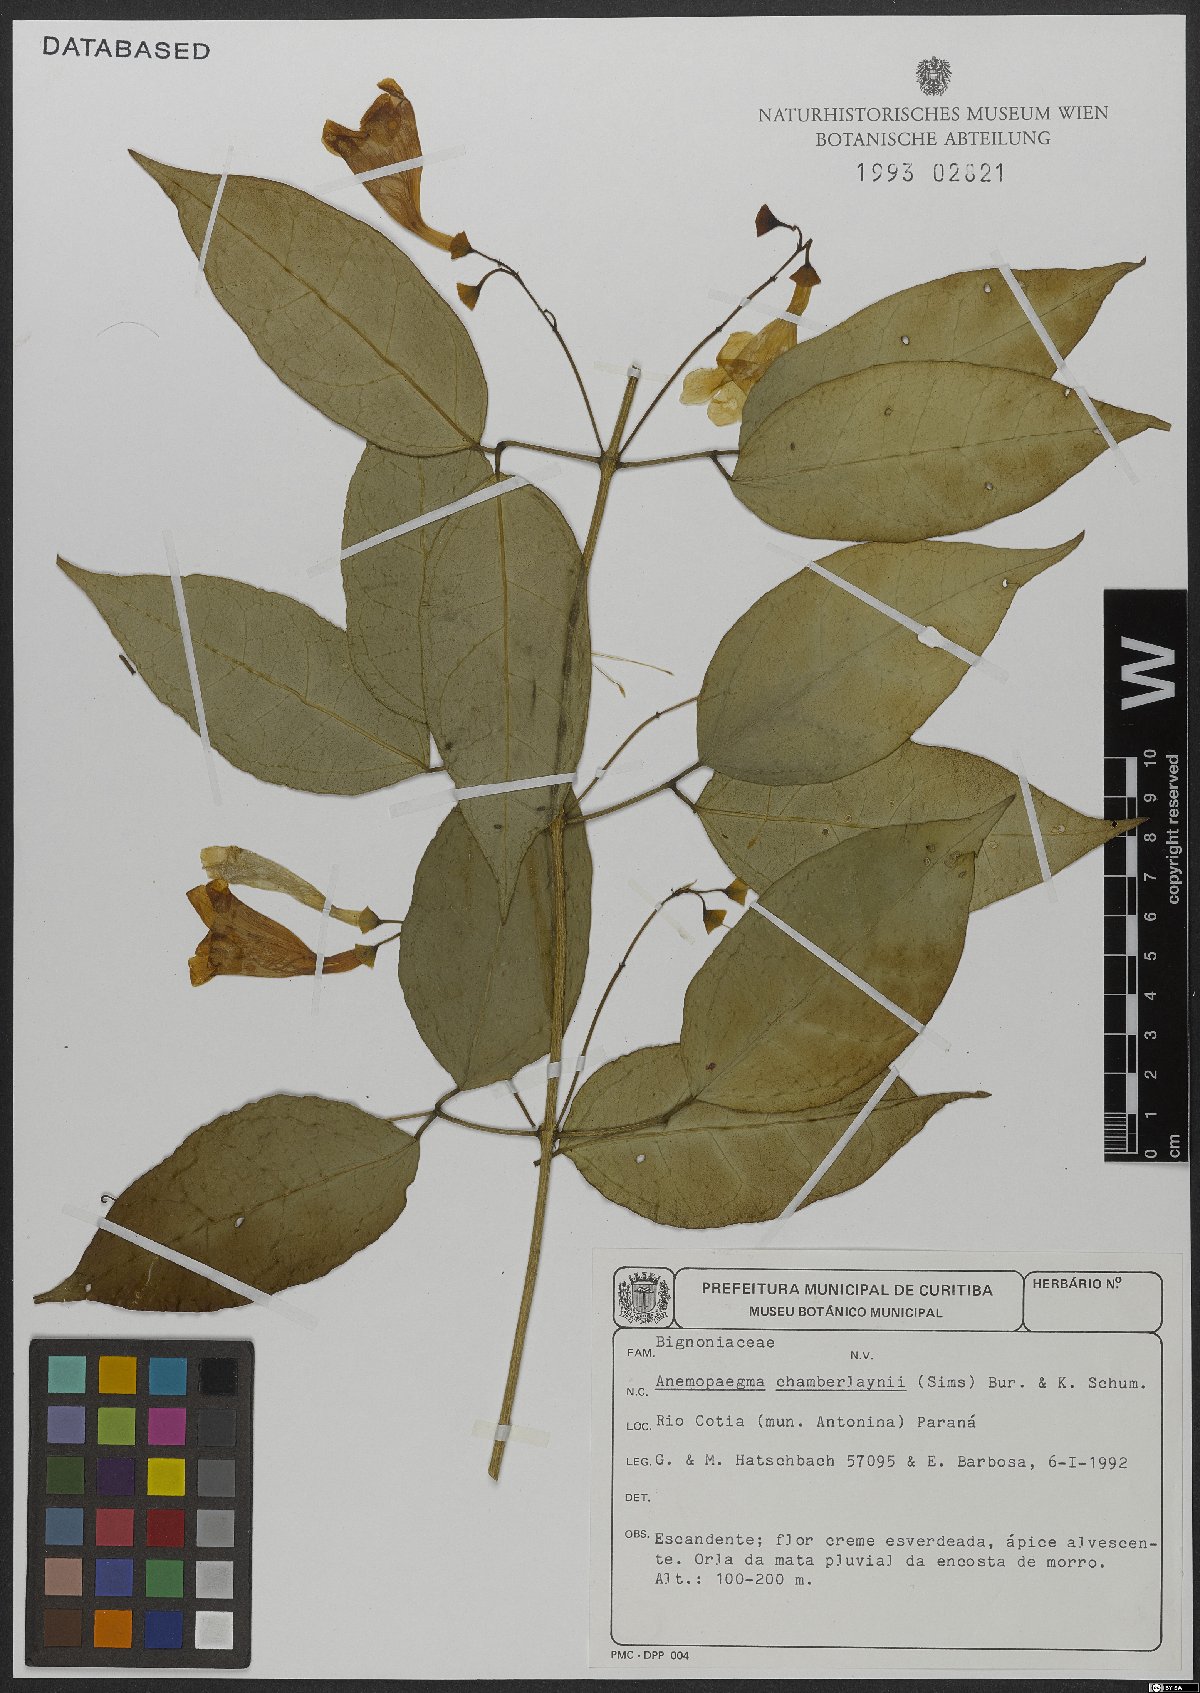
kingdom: Plantae
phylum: Tracheophyta
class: Magnoliopsida
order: Lamiales
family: Bignoniaceae
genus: Anemopaegma
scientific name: Anemopaegma chamberlaynii
